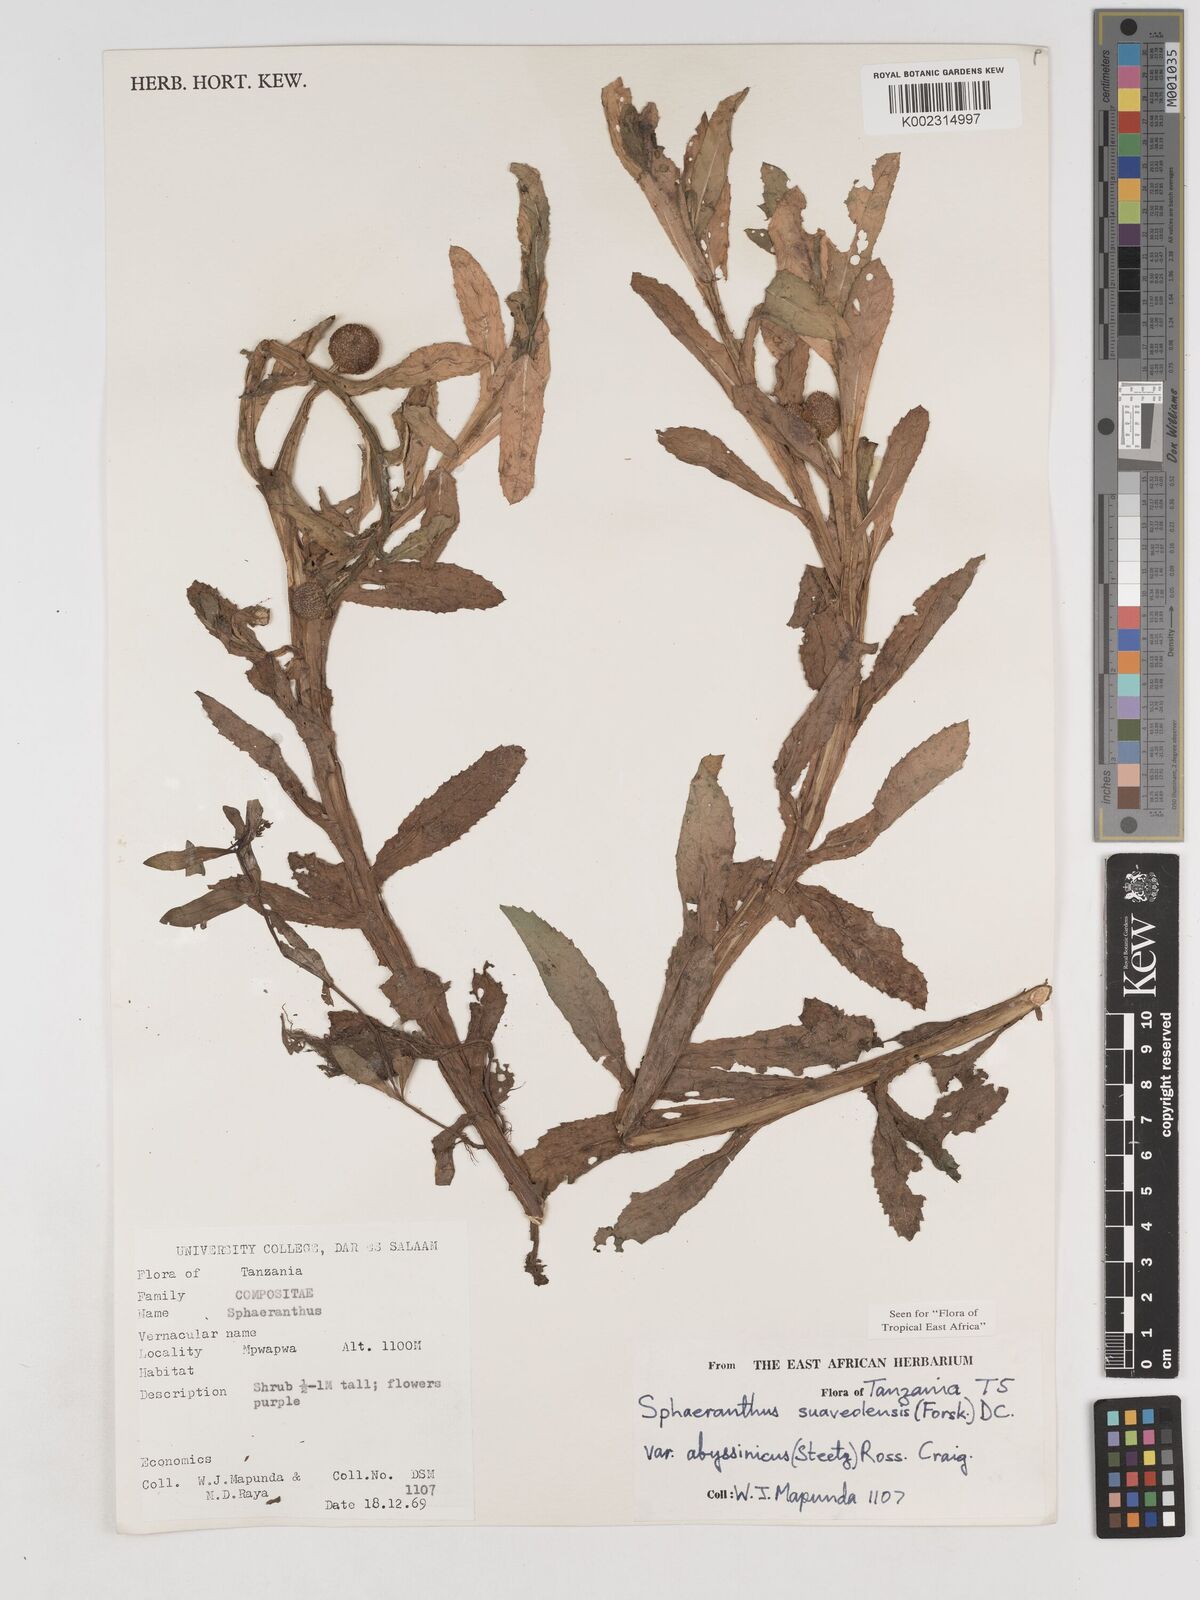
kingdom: Plantae
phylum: Tracheophyta
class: Magnoliopsida
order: Asterales
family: Asteraceae
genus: Sphaeranthus
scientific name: Sphaeranthus suaveolens
